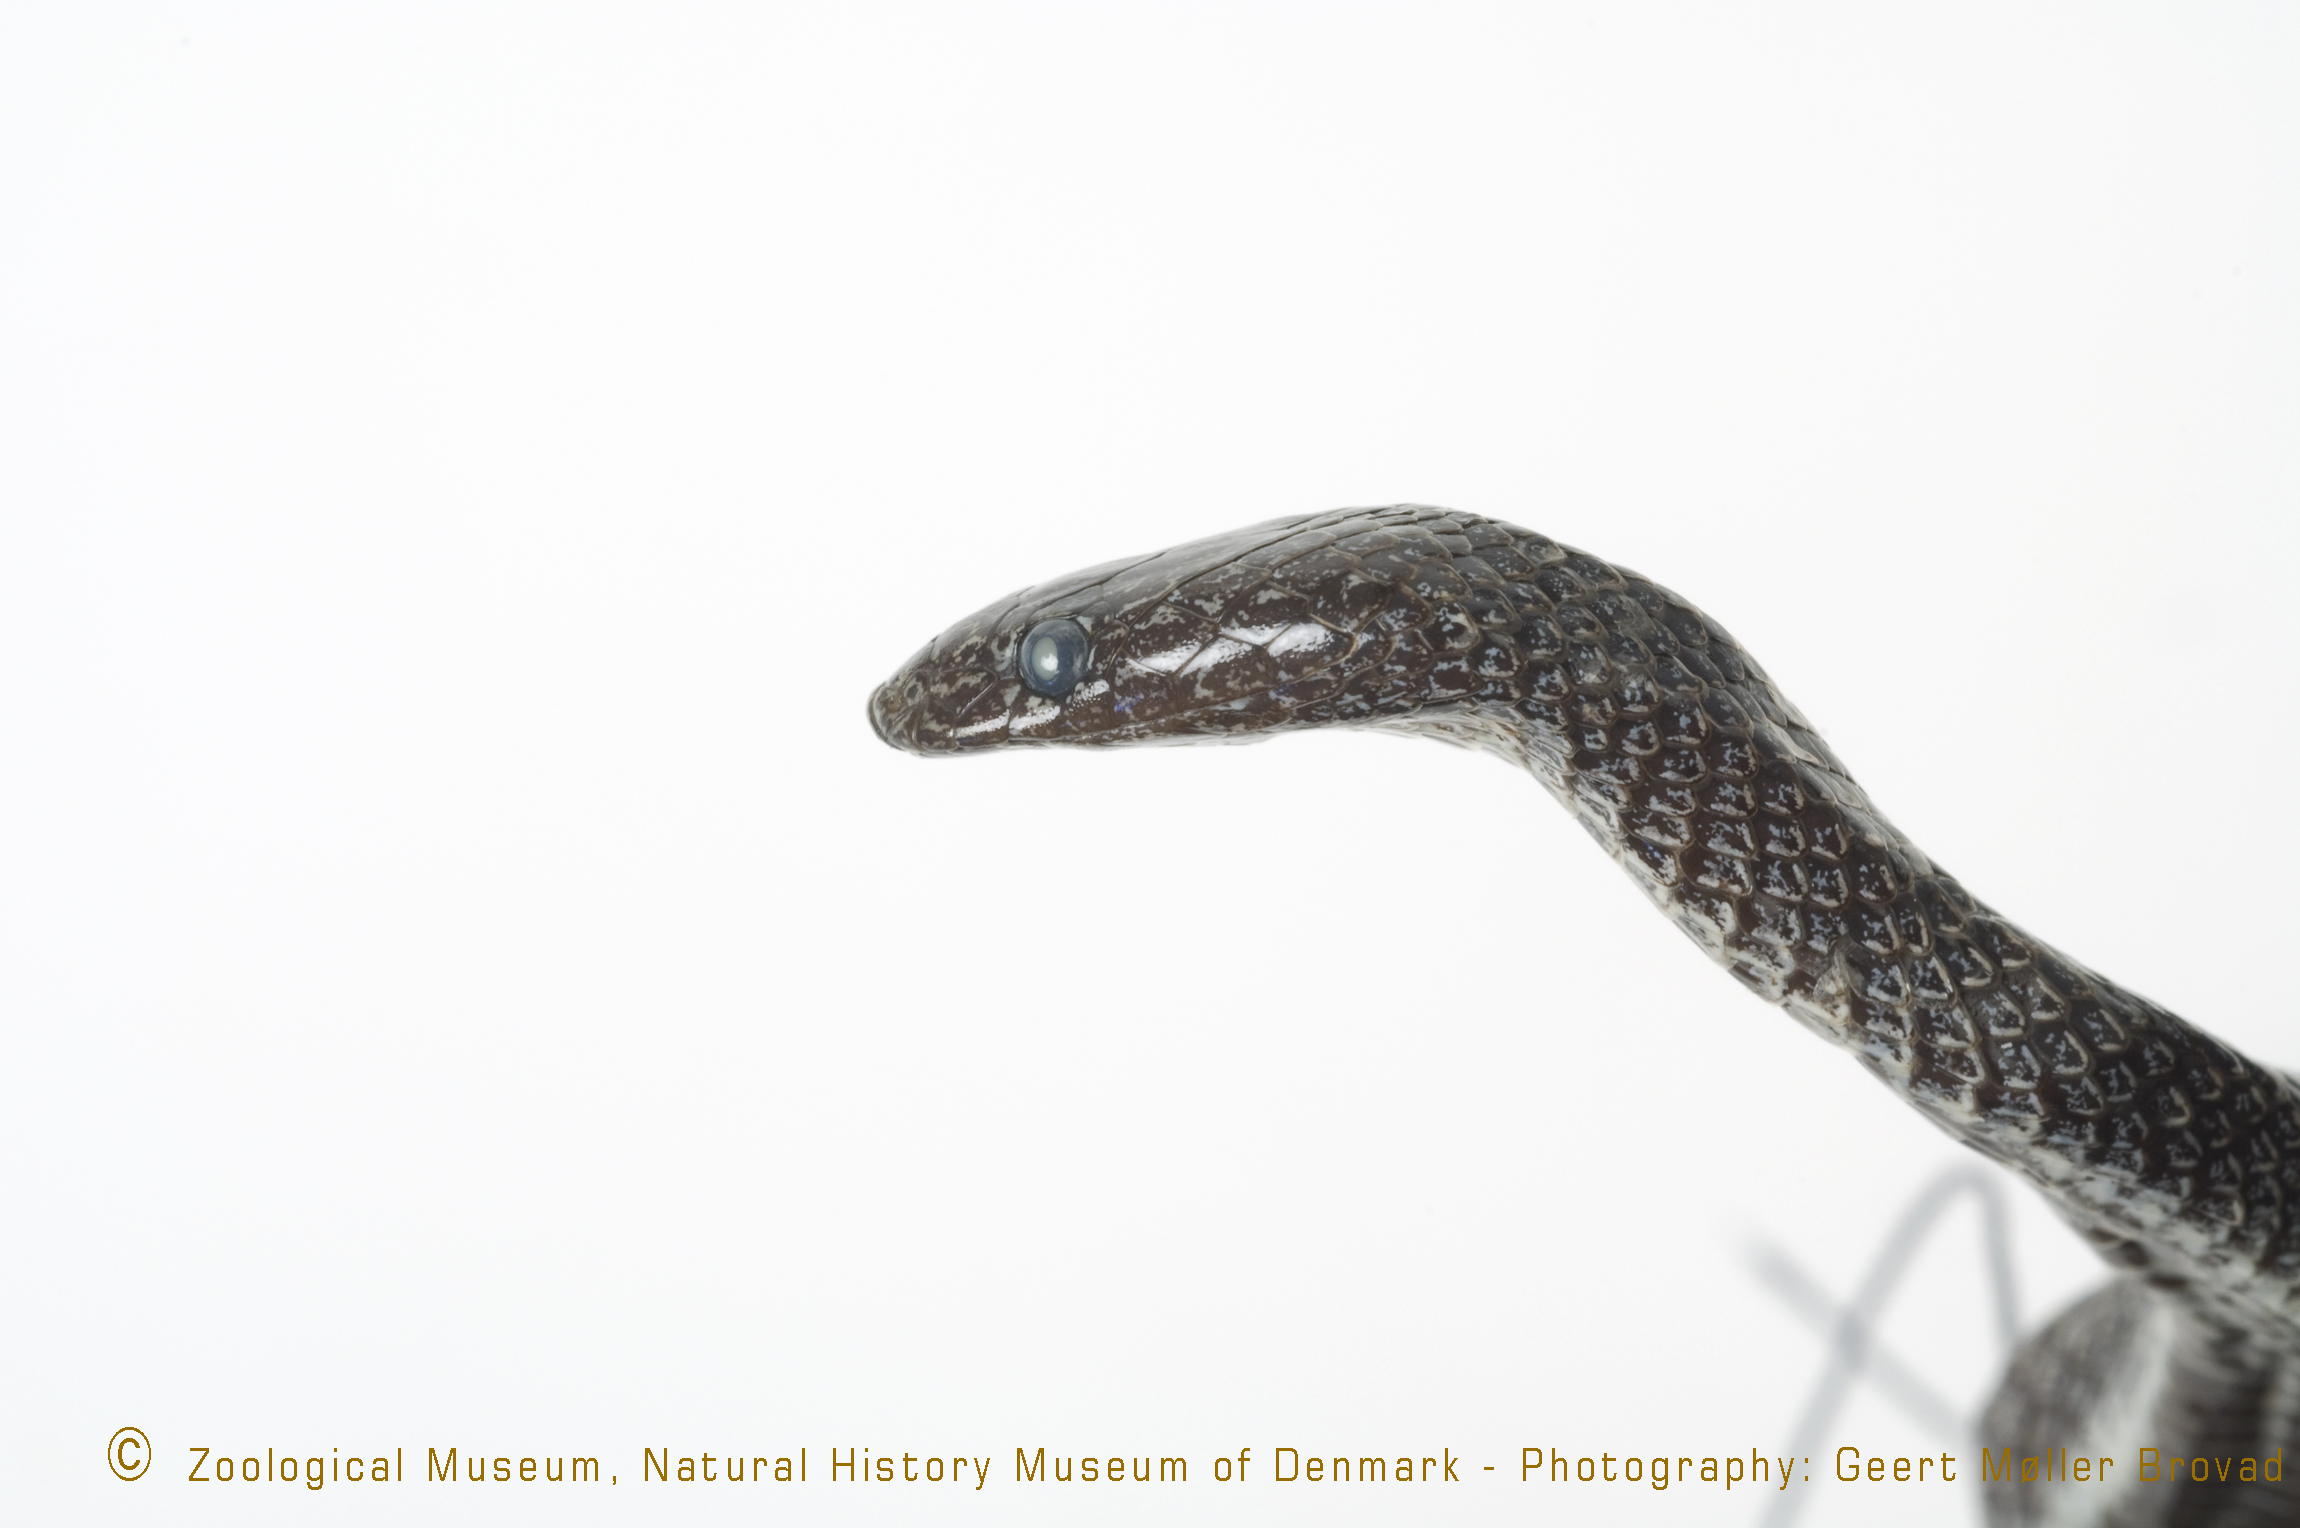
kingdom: Animalia
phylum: Chordata
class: Squamata
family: Lamprophiidae
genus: Lycophidion
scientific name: Lycophidion taylori
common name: Taylor’s wolf snake
